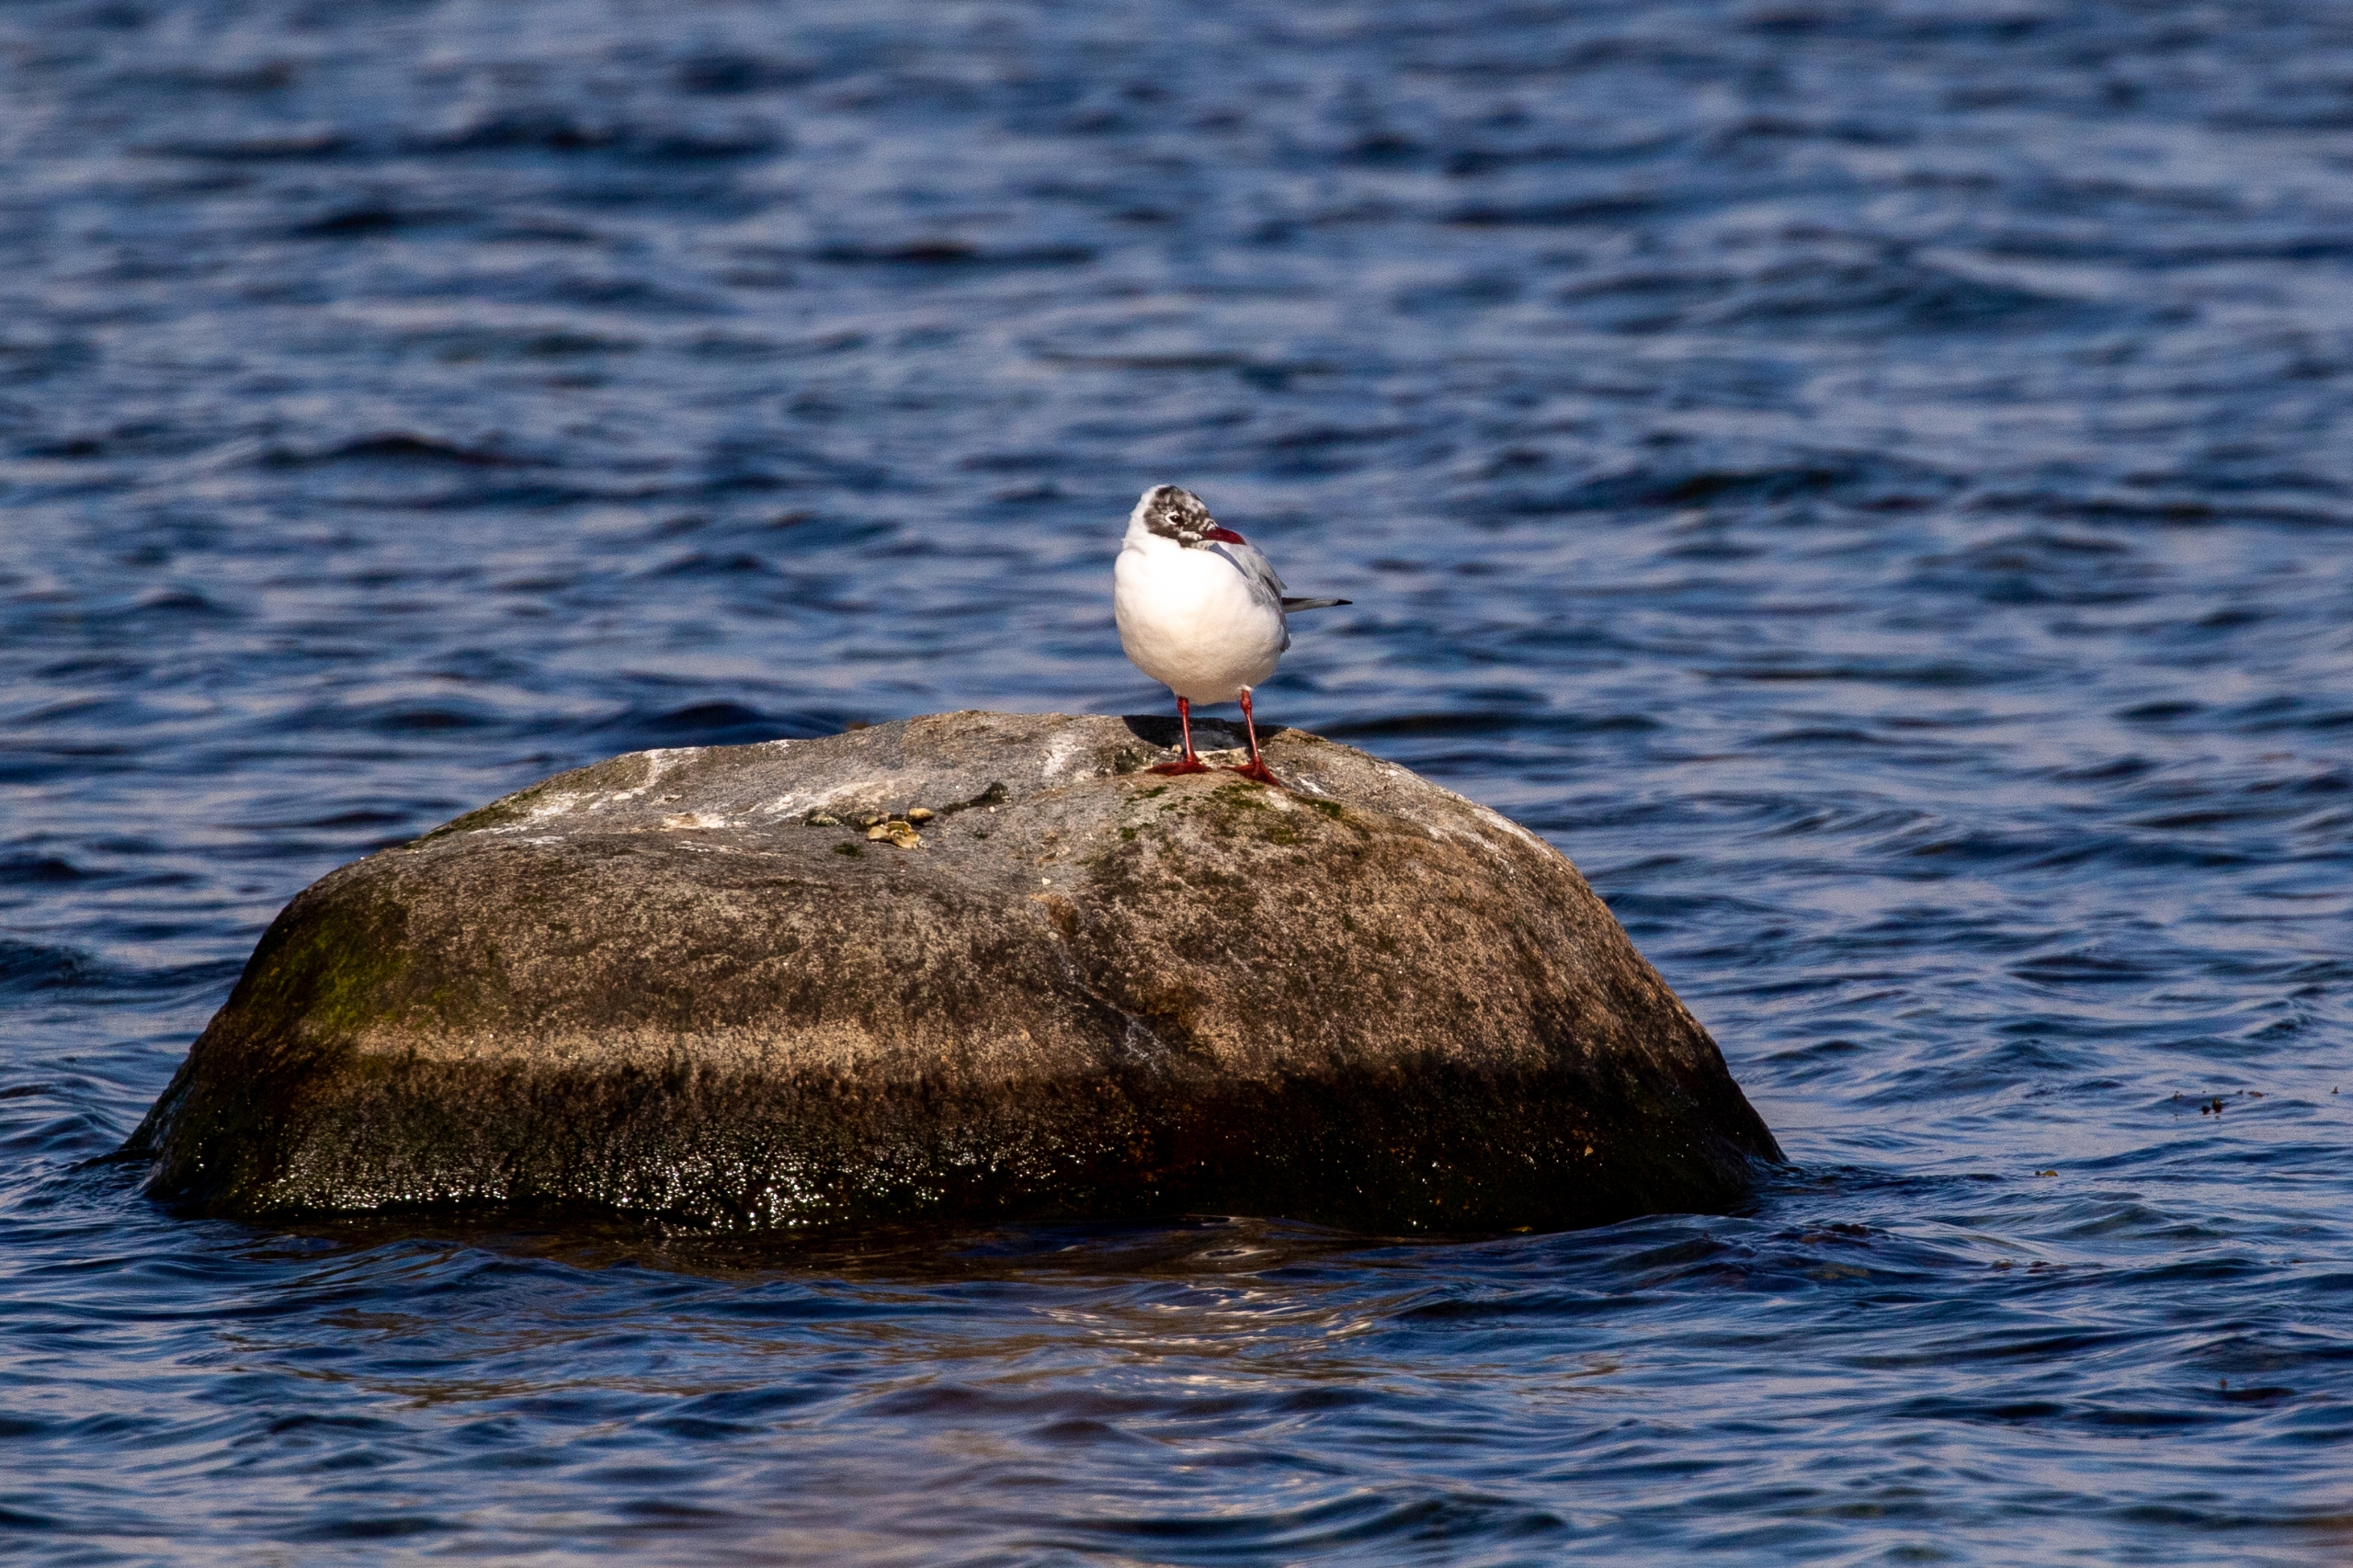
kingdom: Animalia
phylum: Chordata
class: Aves
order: Charadriiformes
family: Laridae
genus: Chroicocephalus
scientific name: Chroicocephalus ridibundus
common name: Hættemåge
